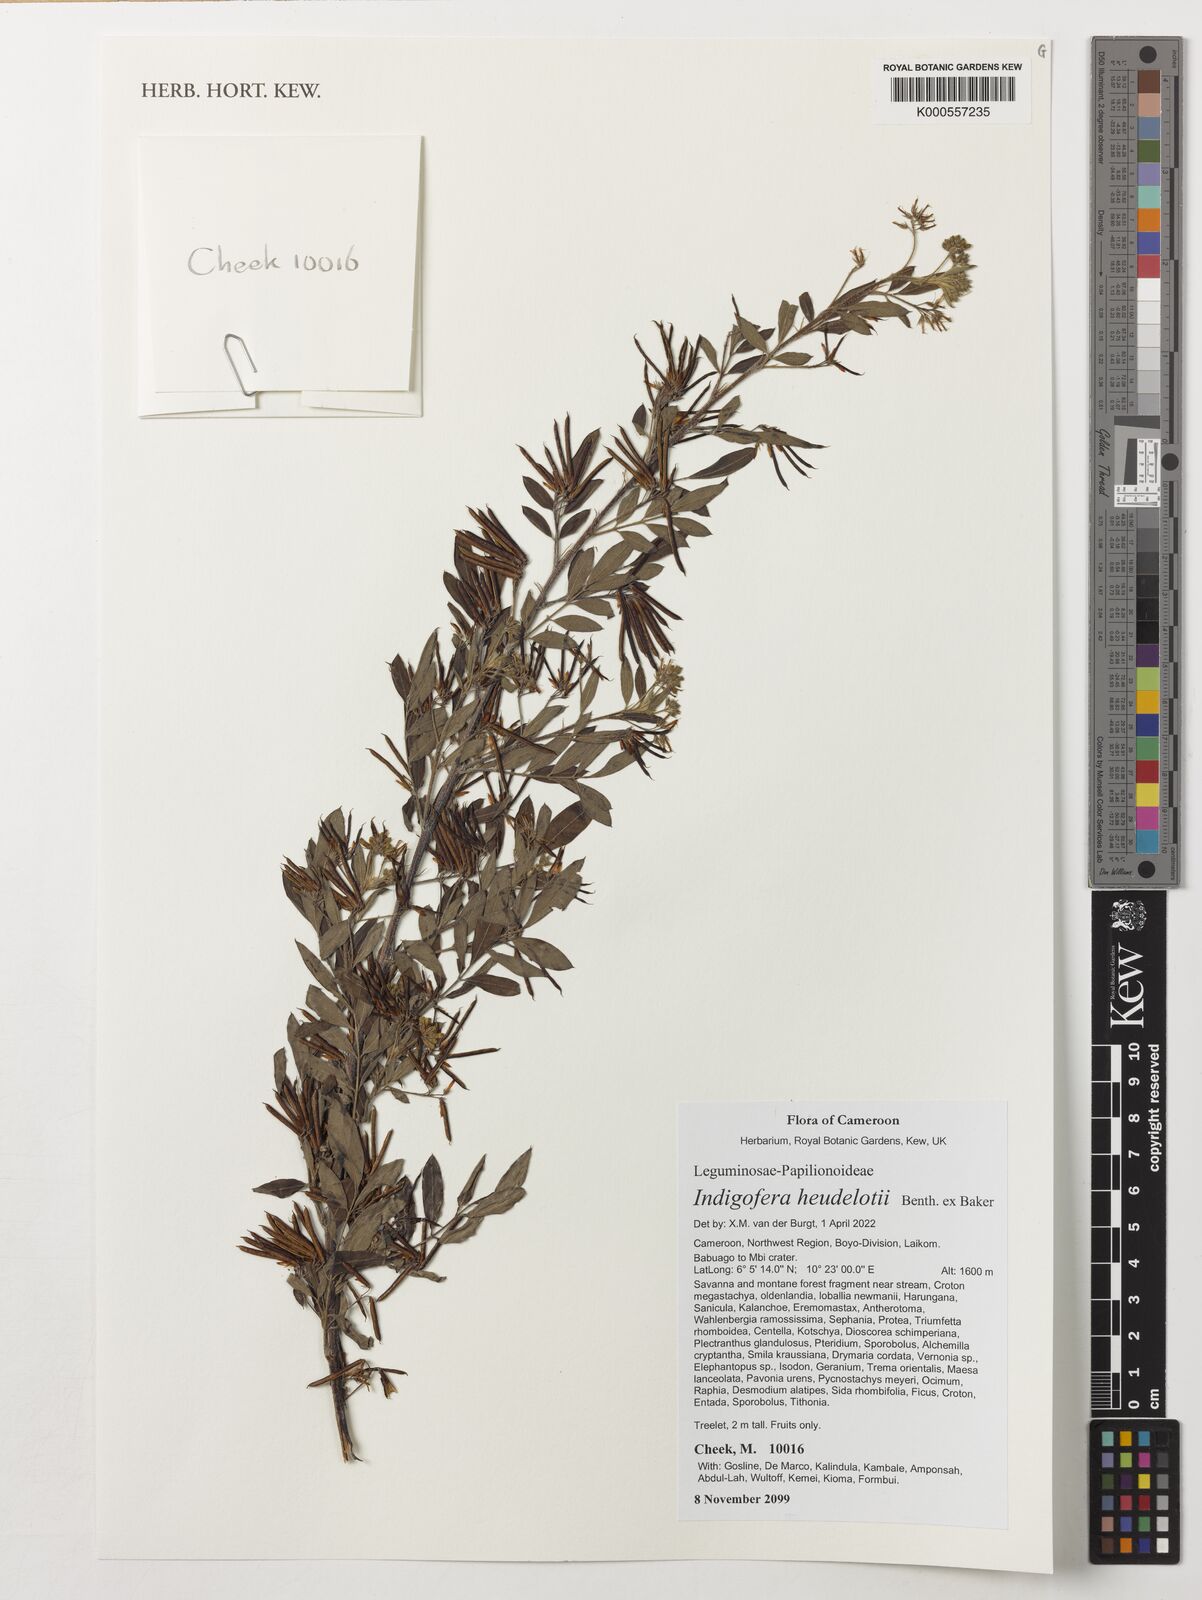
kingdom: Plantae
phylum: Tracheophyta
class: Magnoliopsida
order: Fabales
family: Fabaceae
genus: Indigofera
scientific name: Indigofera heudelotii
